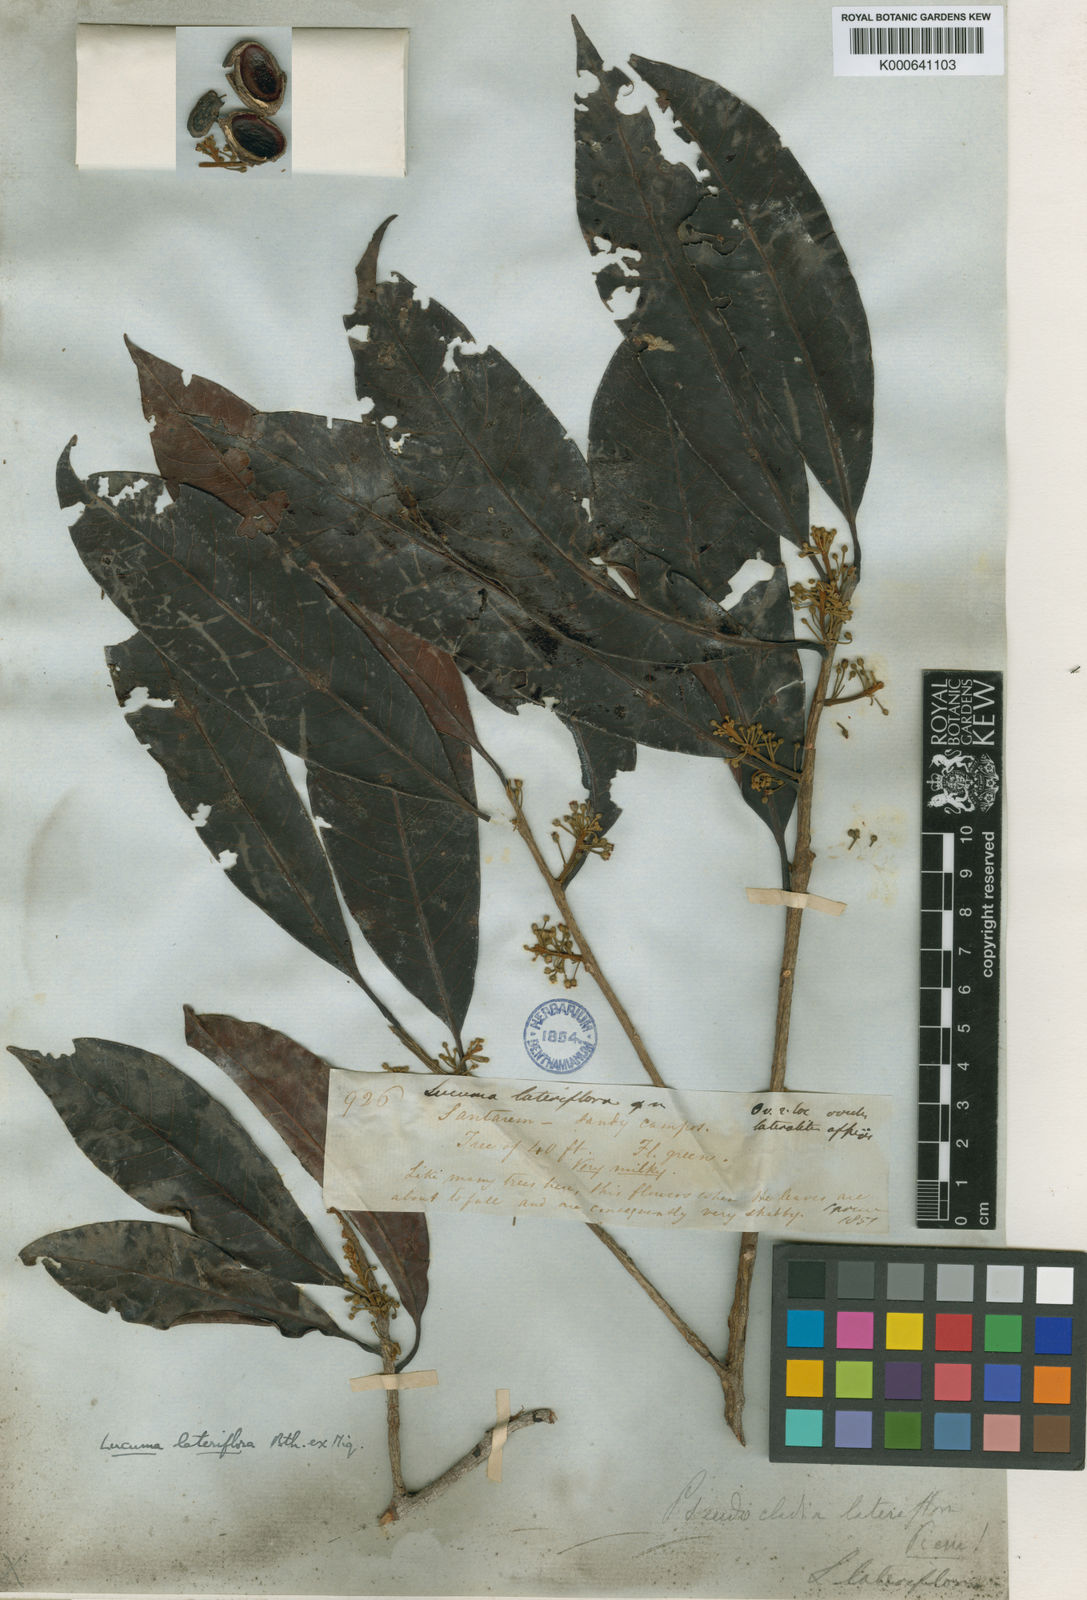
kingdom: Plantae
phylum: Tracheophyta
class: Magnoliopsida
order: Ericales
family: Sapotaceae
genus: Pouteria
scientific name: Pouteria ramiflora
